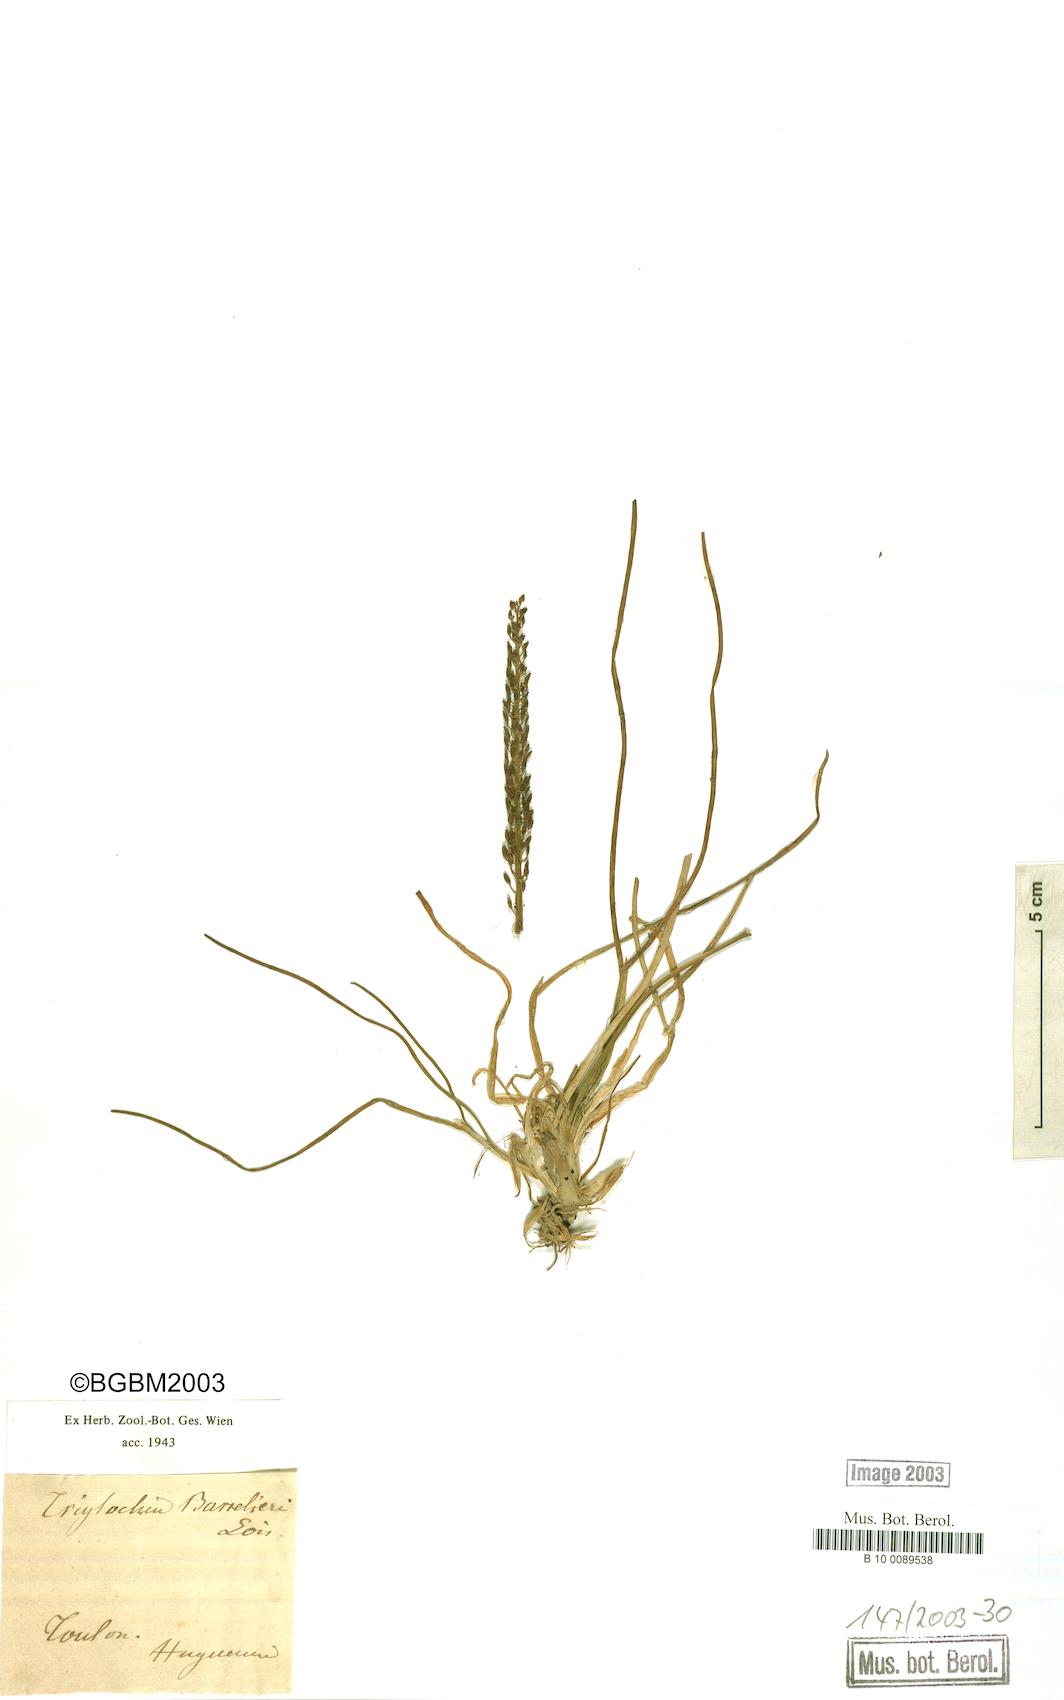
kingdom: Plantae
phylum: Tracheophyta
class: Liliopsida
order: Alismatales
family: Juncaginaceae
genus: Triglochin
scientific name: Triglochin bulbosa
